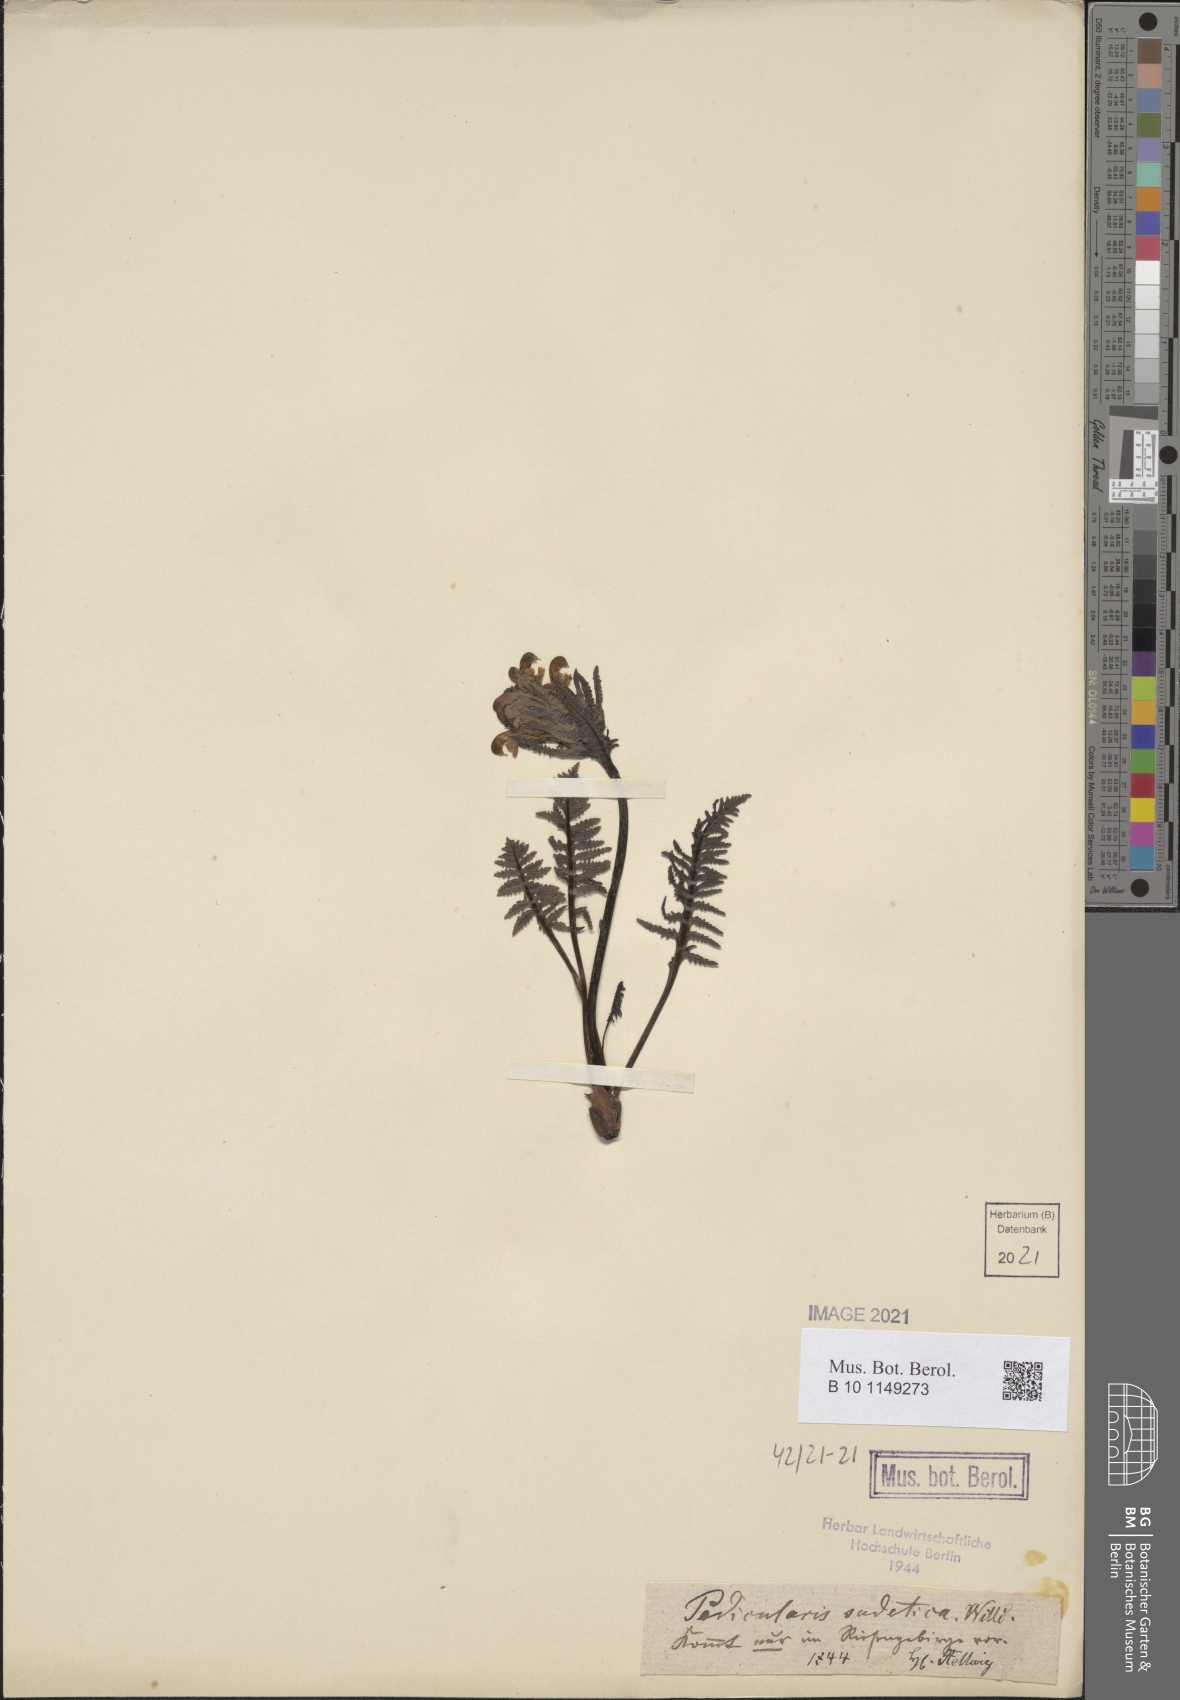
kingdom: Plantae
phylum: Tracheophyta
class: Magnoliopsida
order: Lamiales
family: Orobanchaceae
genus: Pedicularis
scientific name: Pedicularis sudetica
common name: Sudeten lousewort
